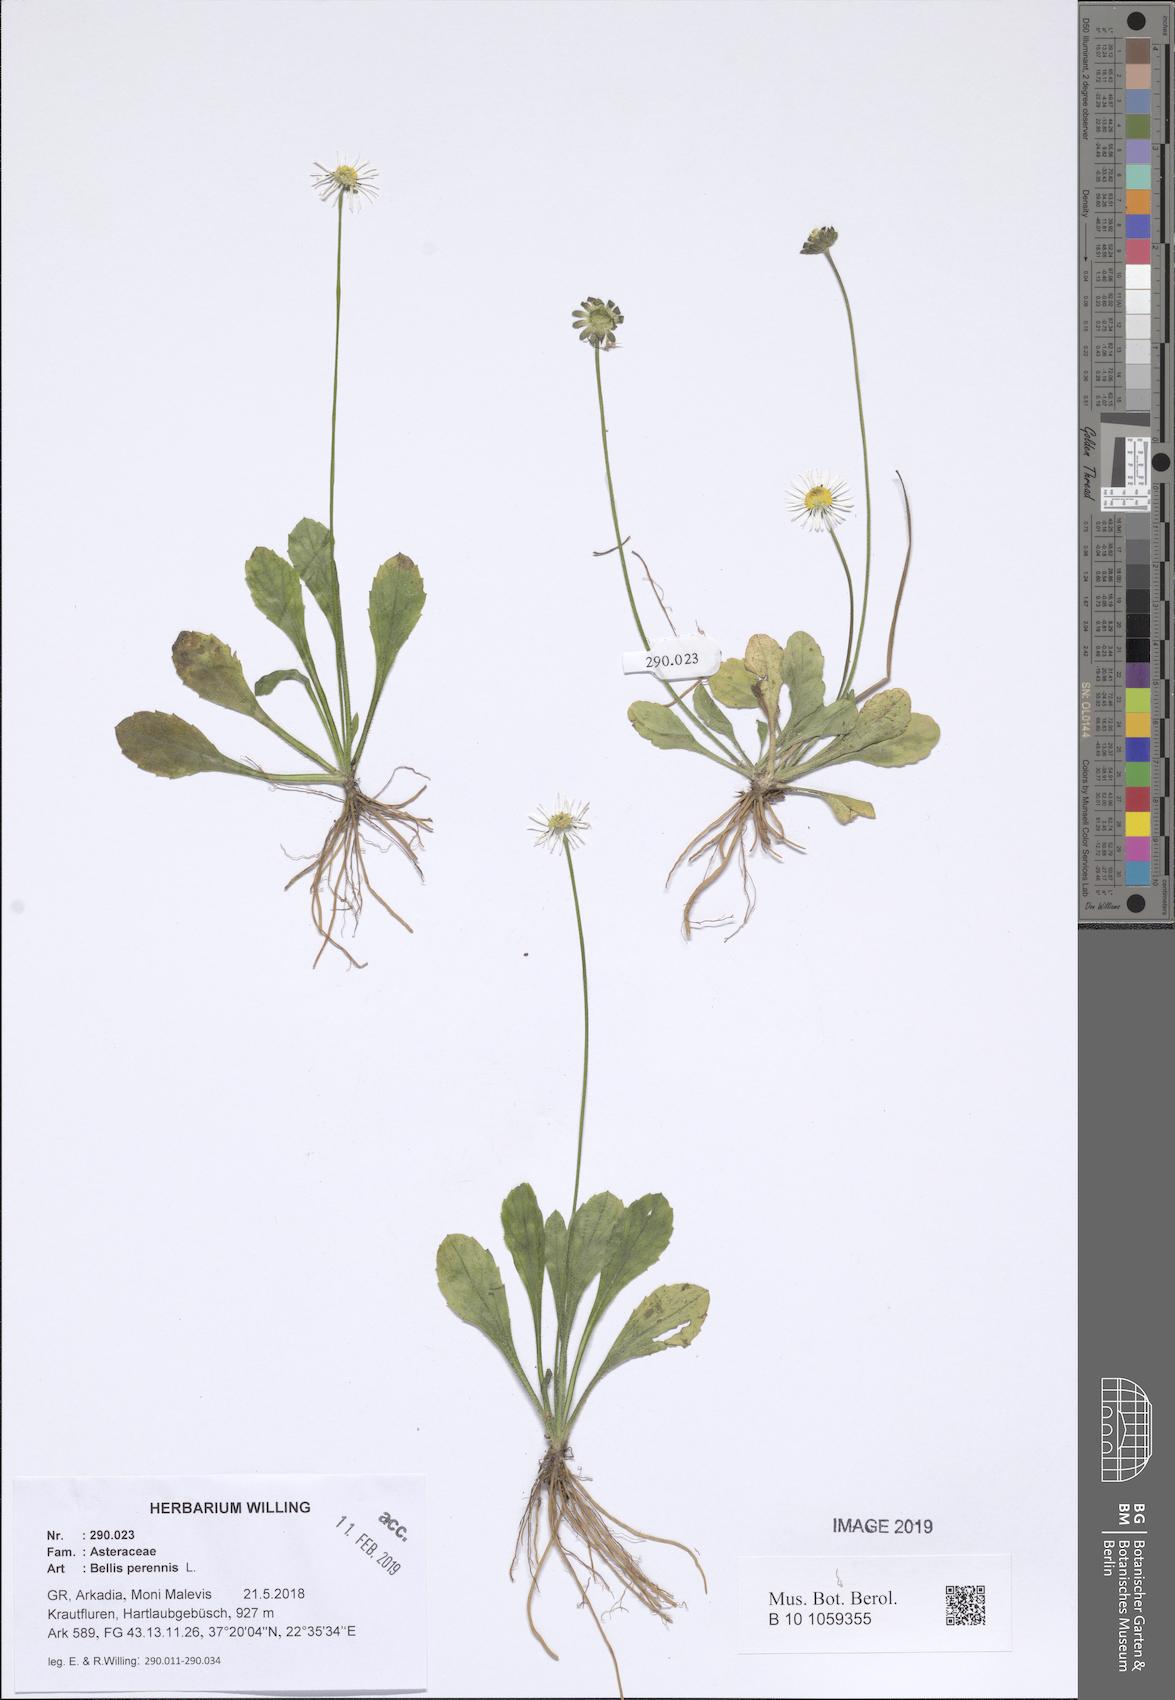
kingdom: Plantae
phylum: Tracheophyta
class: Magnoliopsida
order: Asterales
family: Asteraceae
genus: Bellis
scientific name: Bellis perennis
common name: Lawndaisy
